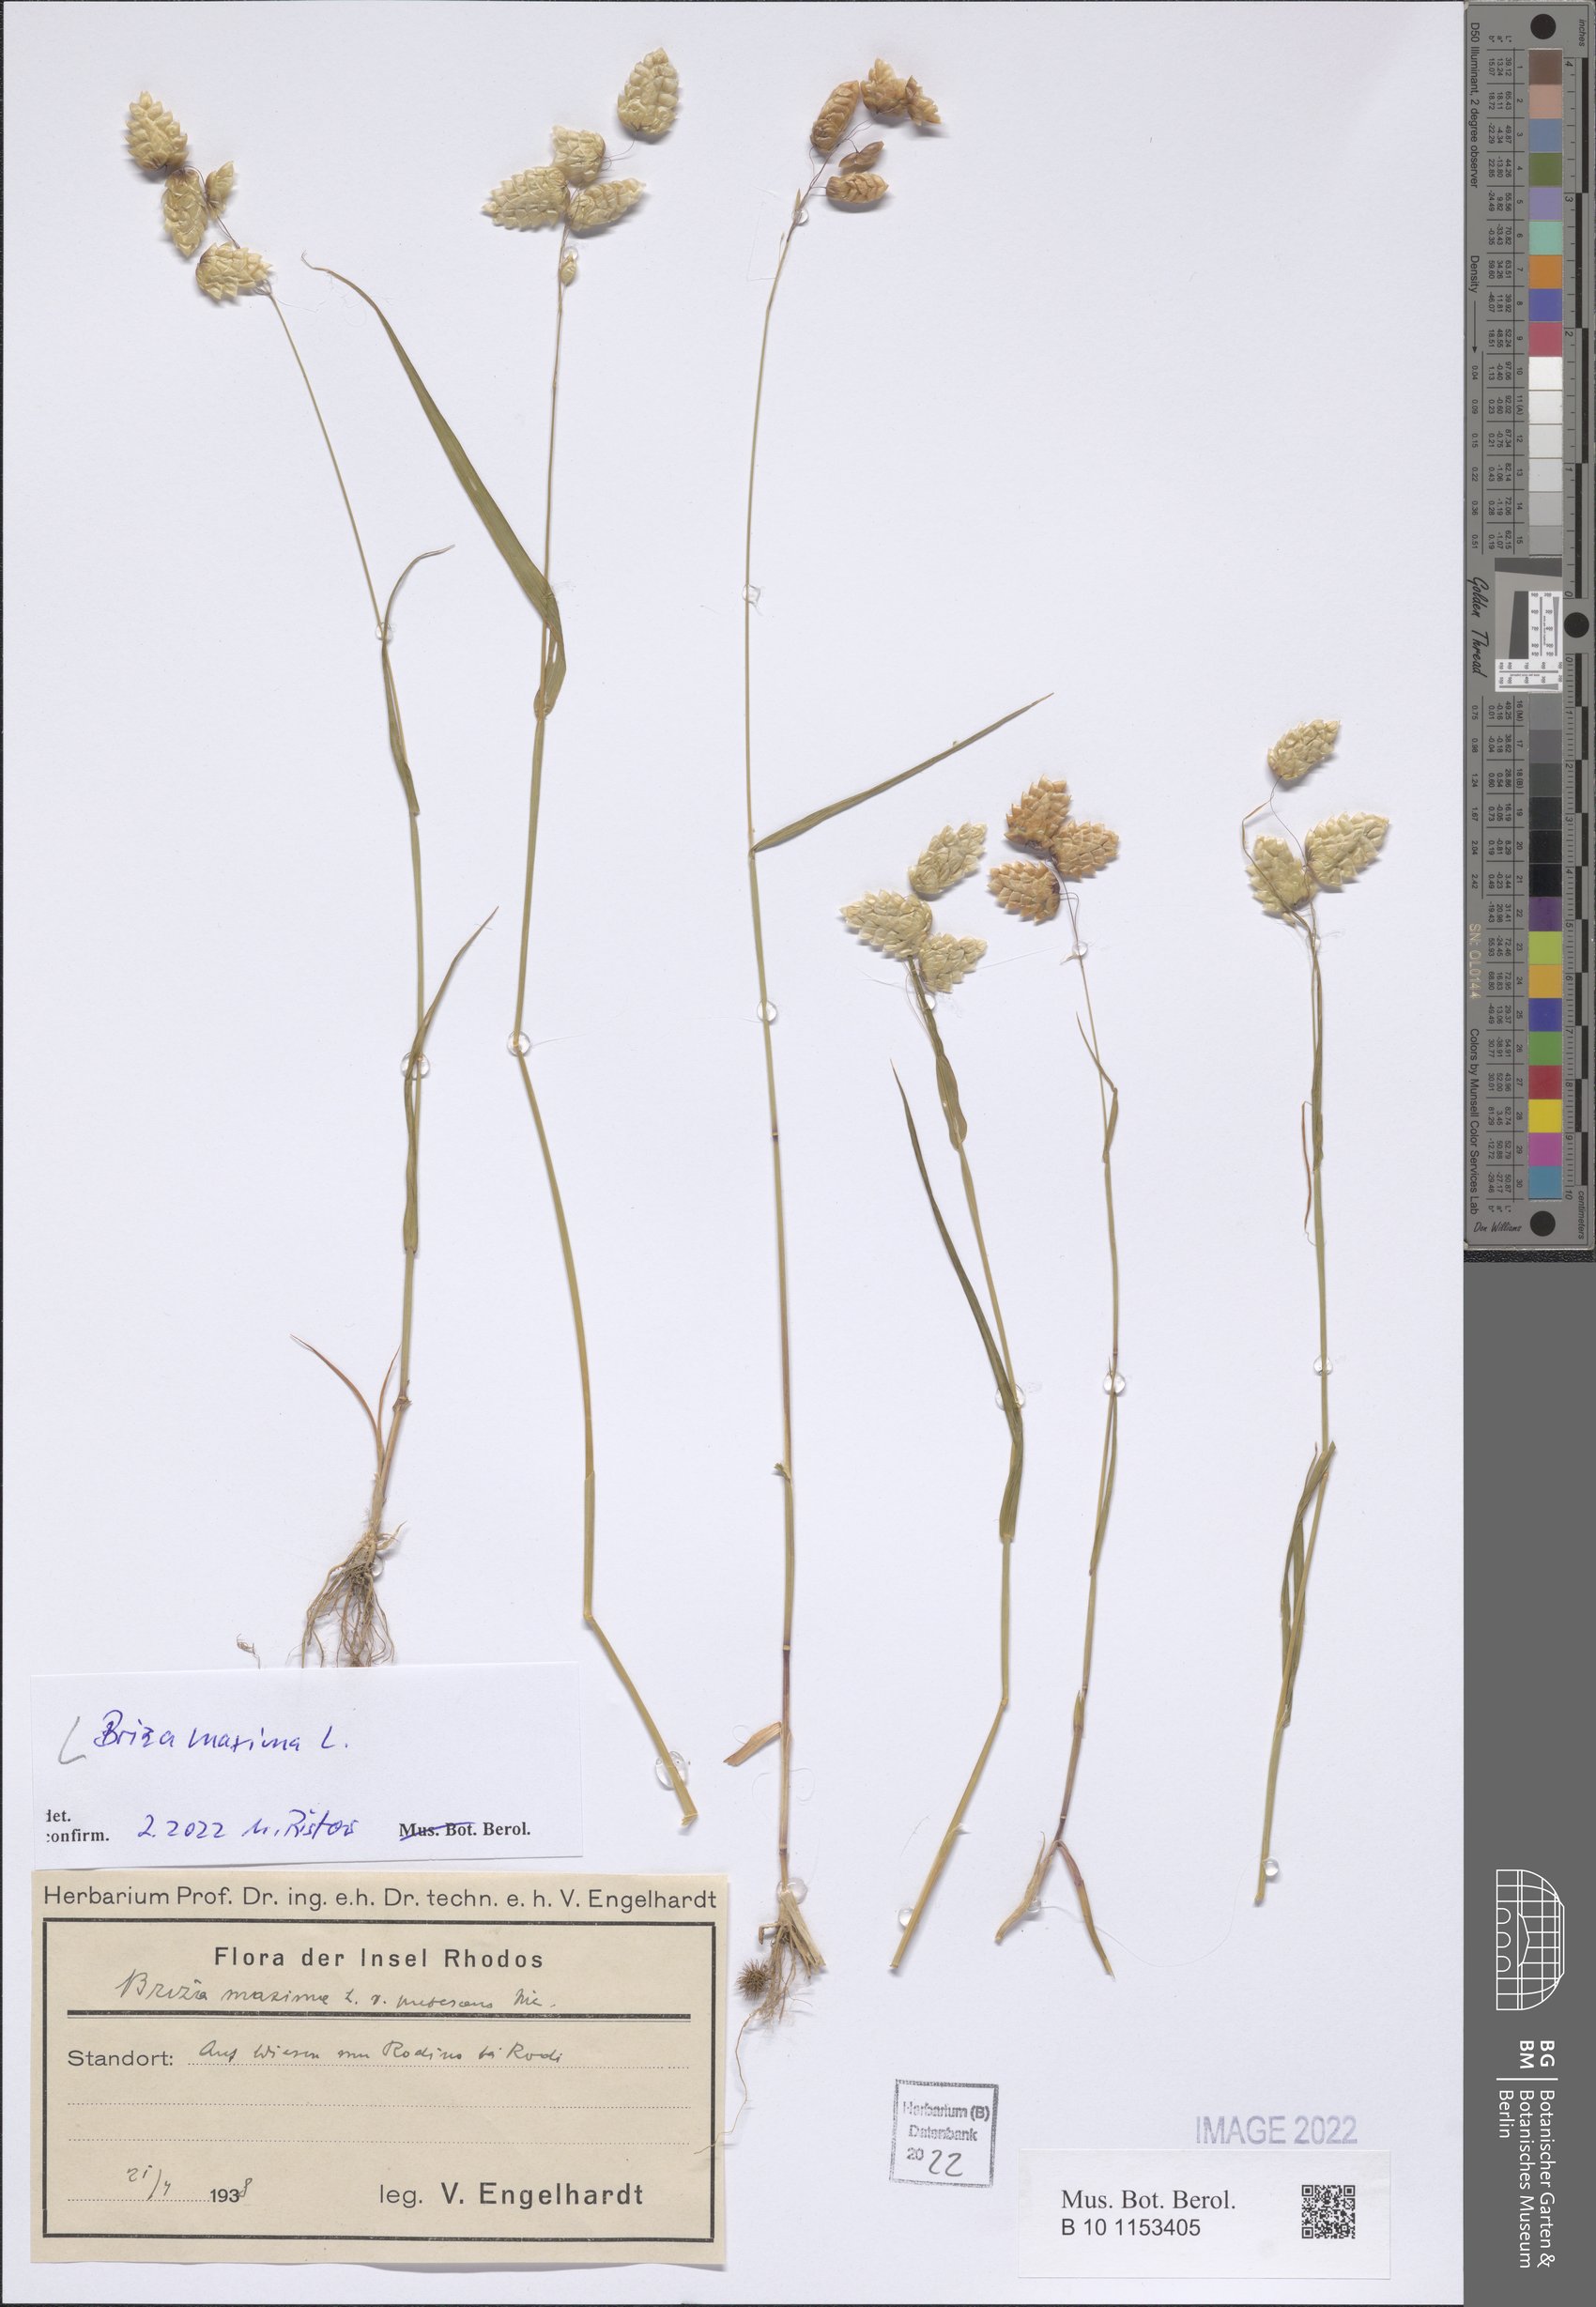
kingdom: Plantae
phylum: Tracheophyta
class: Liliopsida
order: Poales
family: Poaceae
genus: Briza
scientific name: Briza maxima
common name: Big quakinggrass
